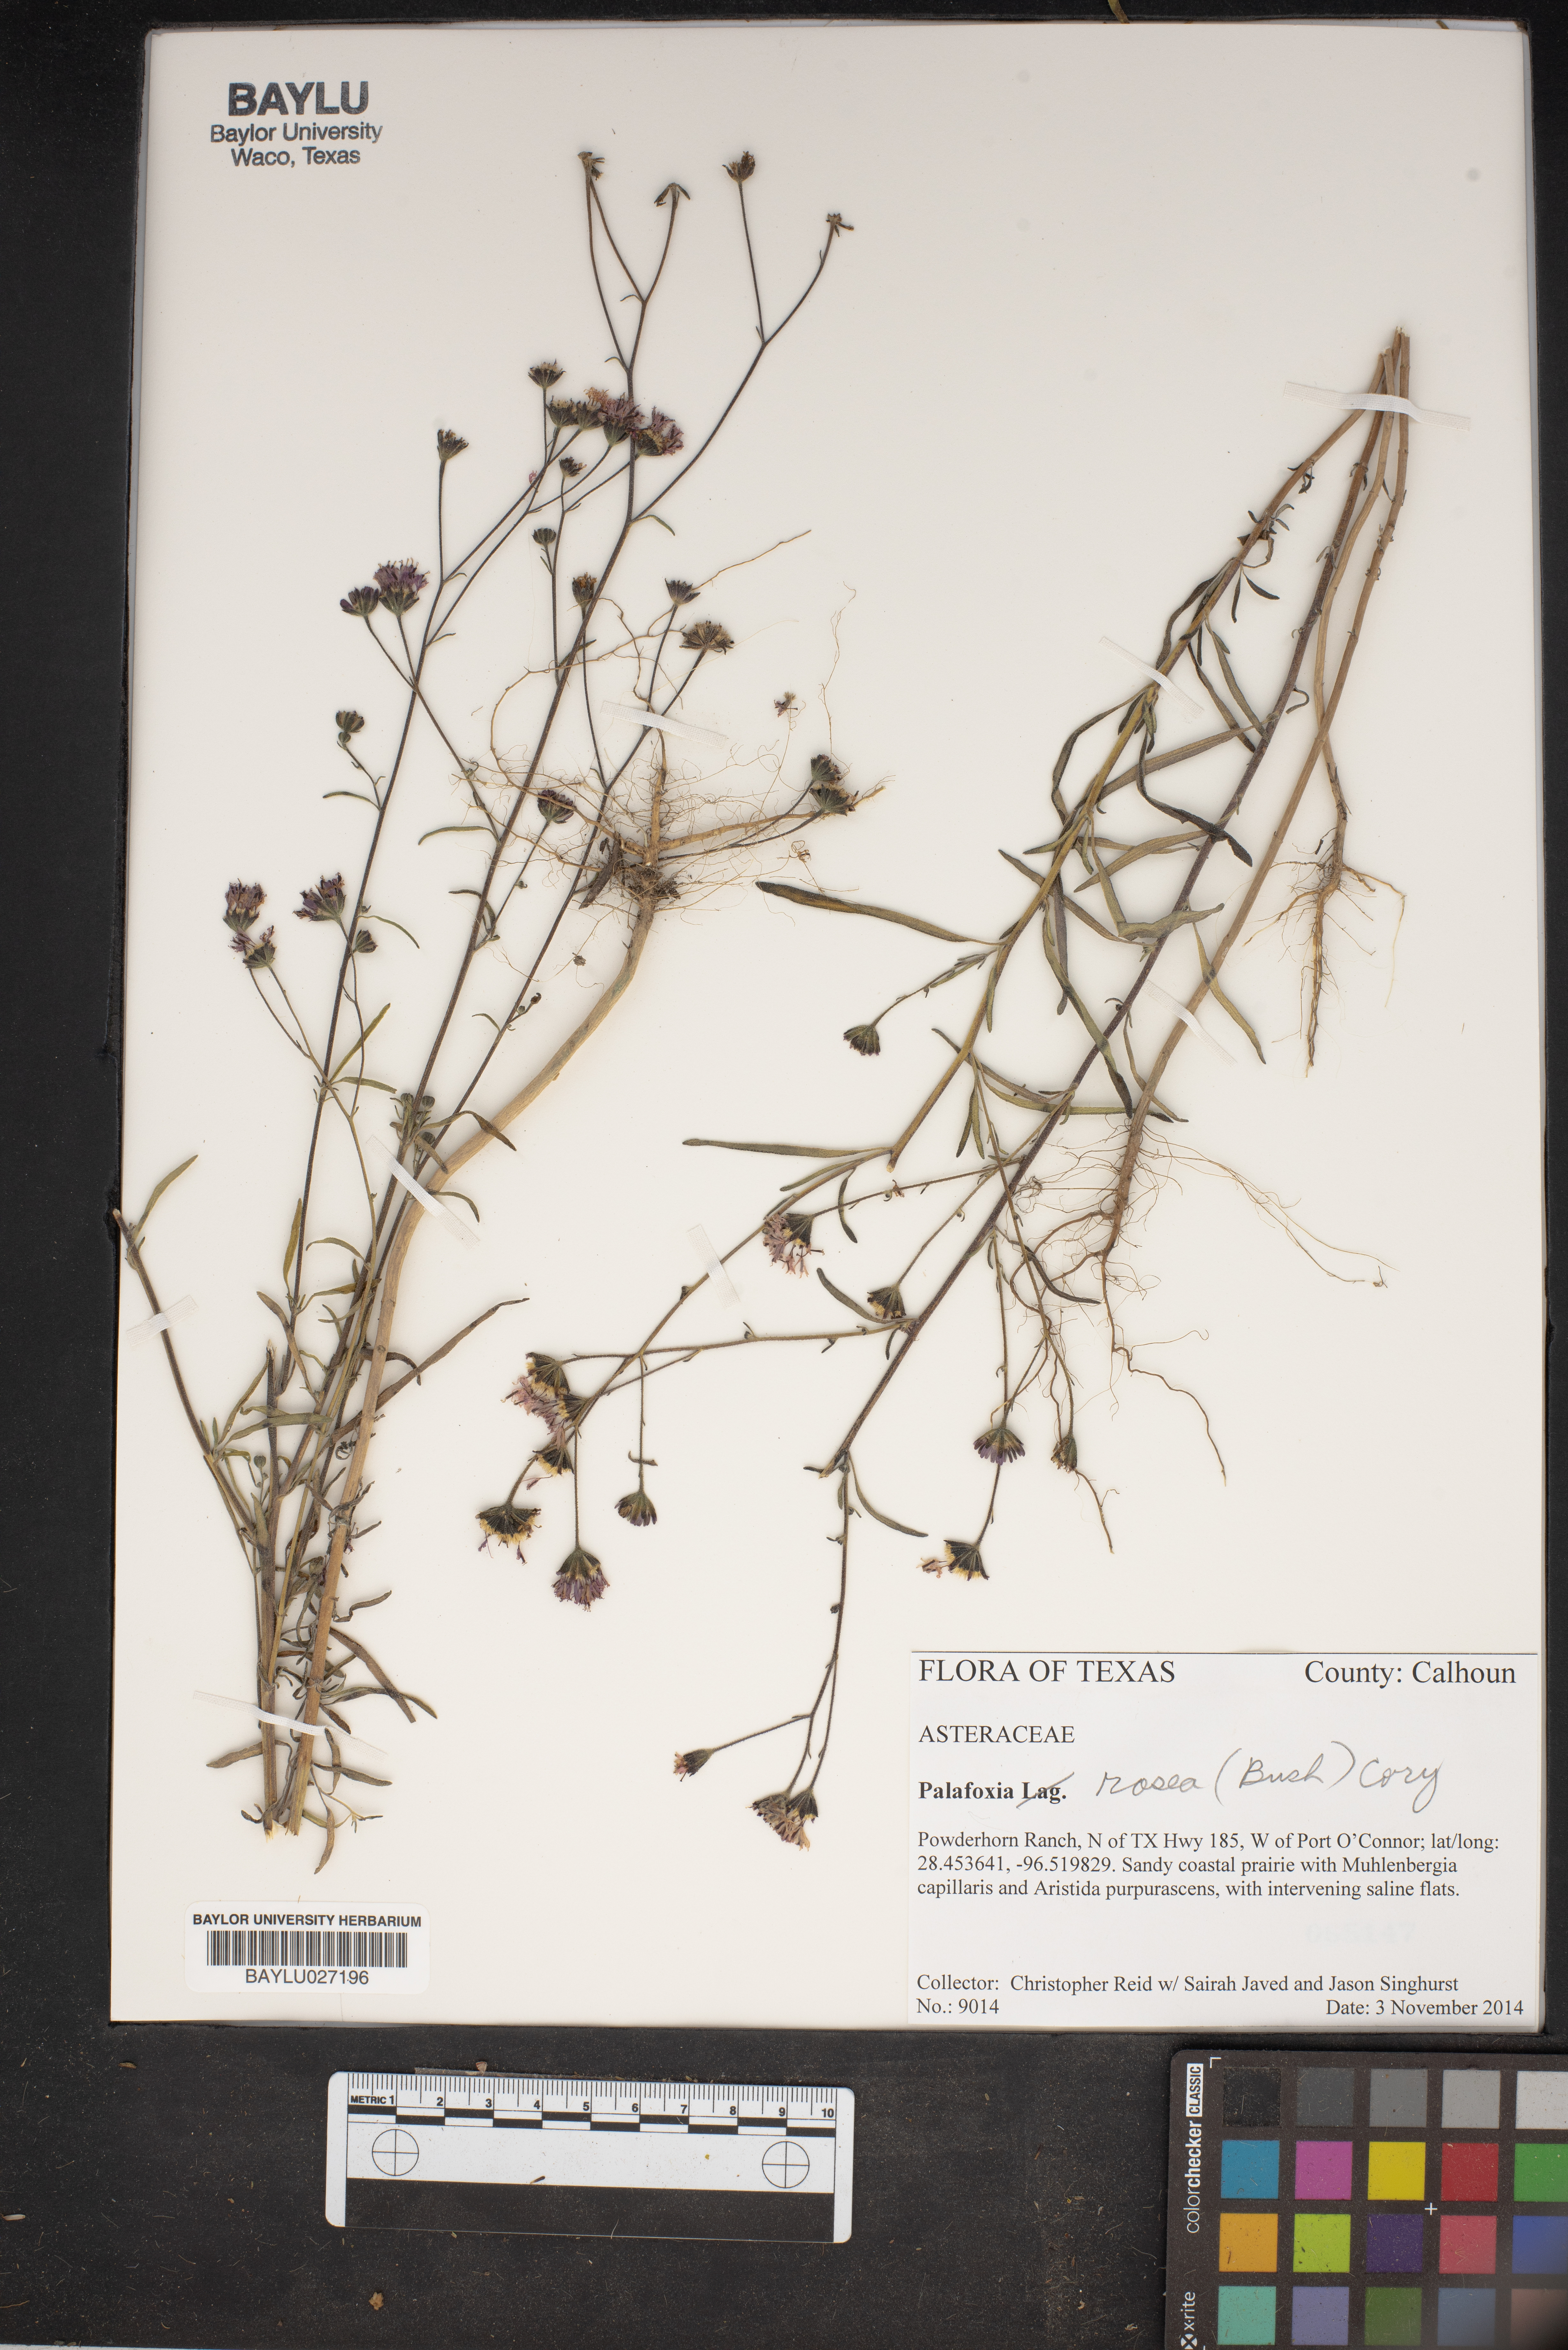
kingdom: Plantae
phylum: Tracheophyta
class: Magnoliopsida
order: Asterales
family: Asteraceae
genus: Palafoxia
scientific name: Palafoxia rosea
